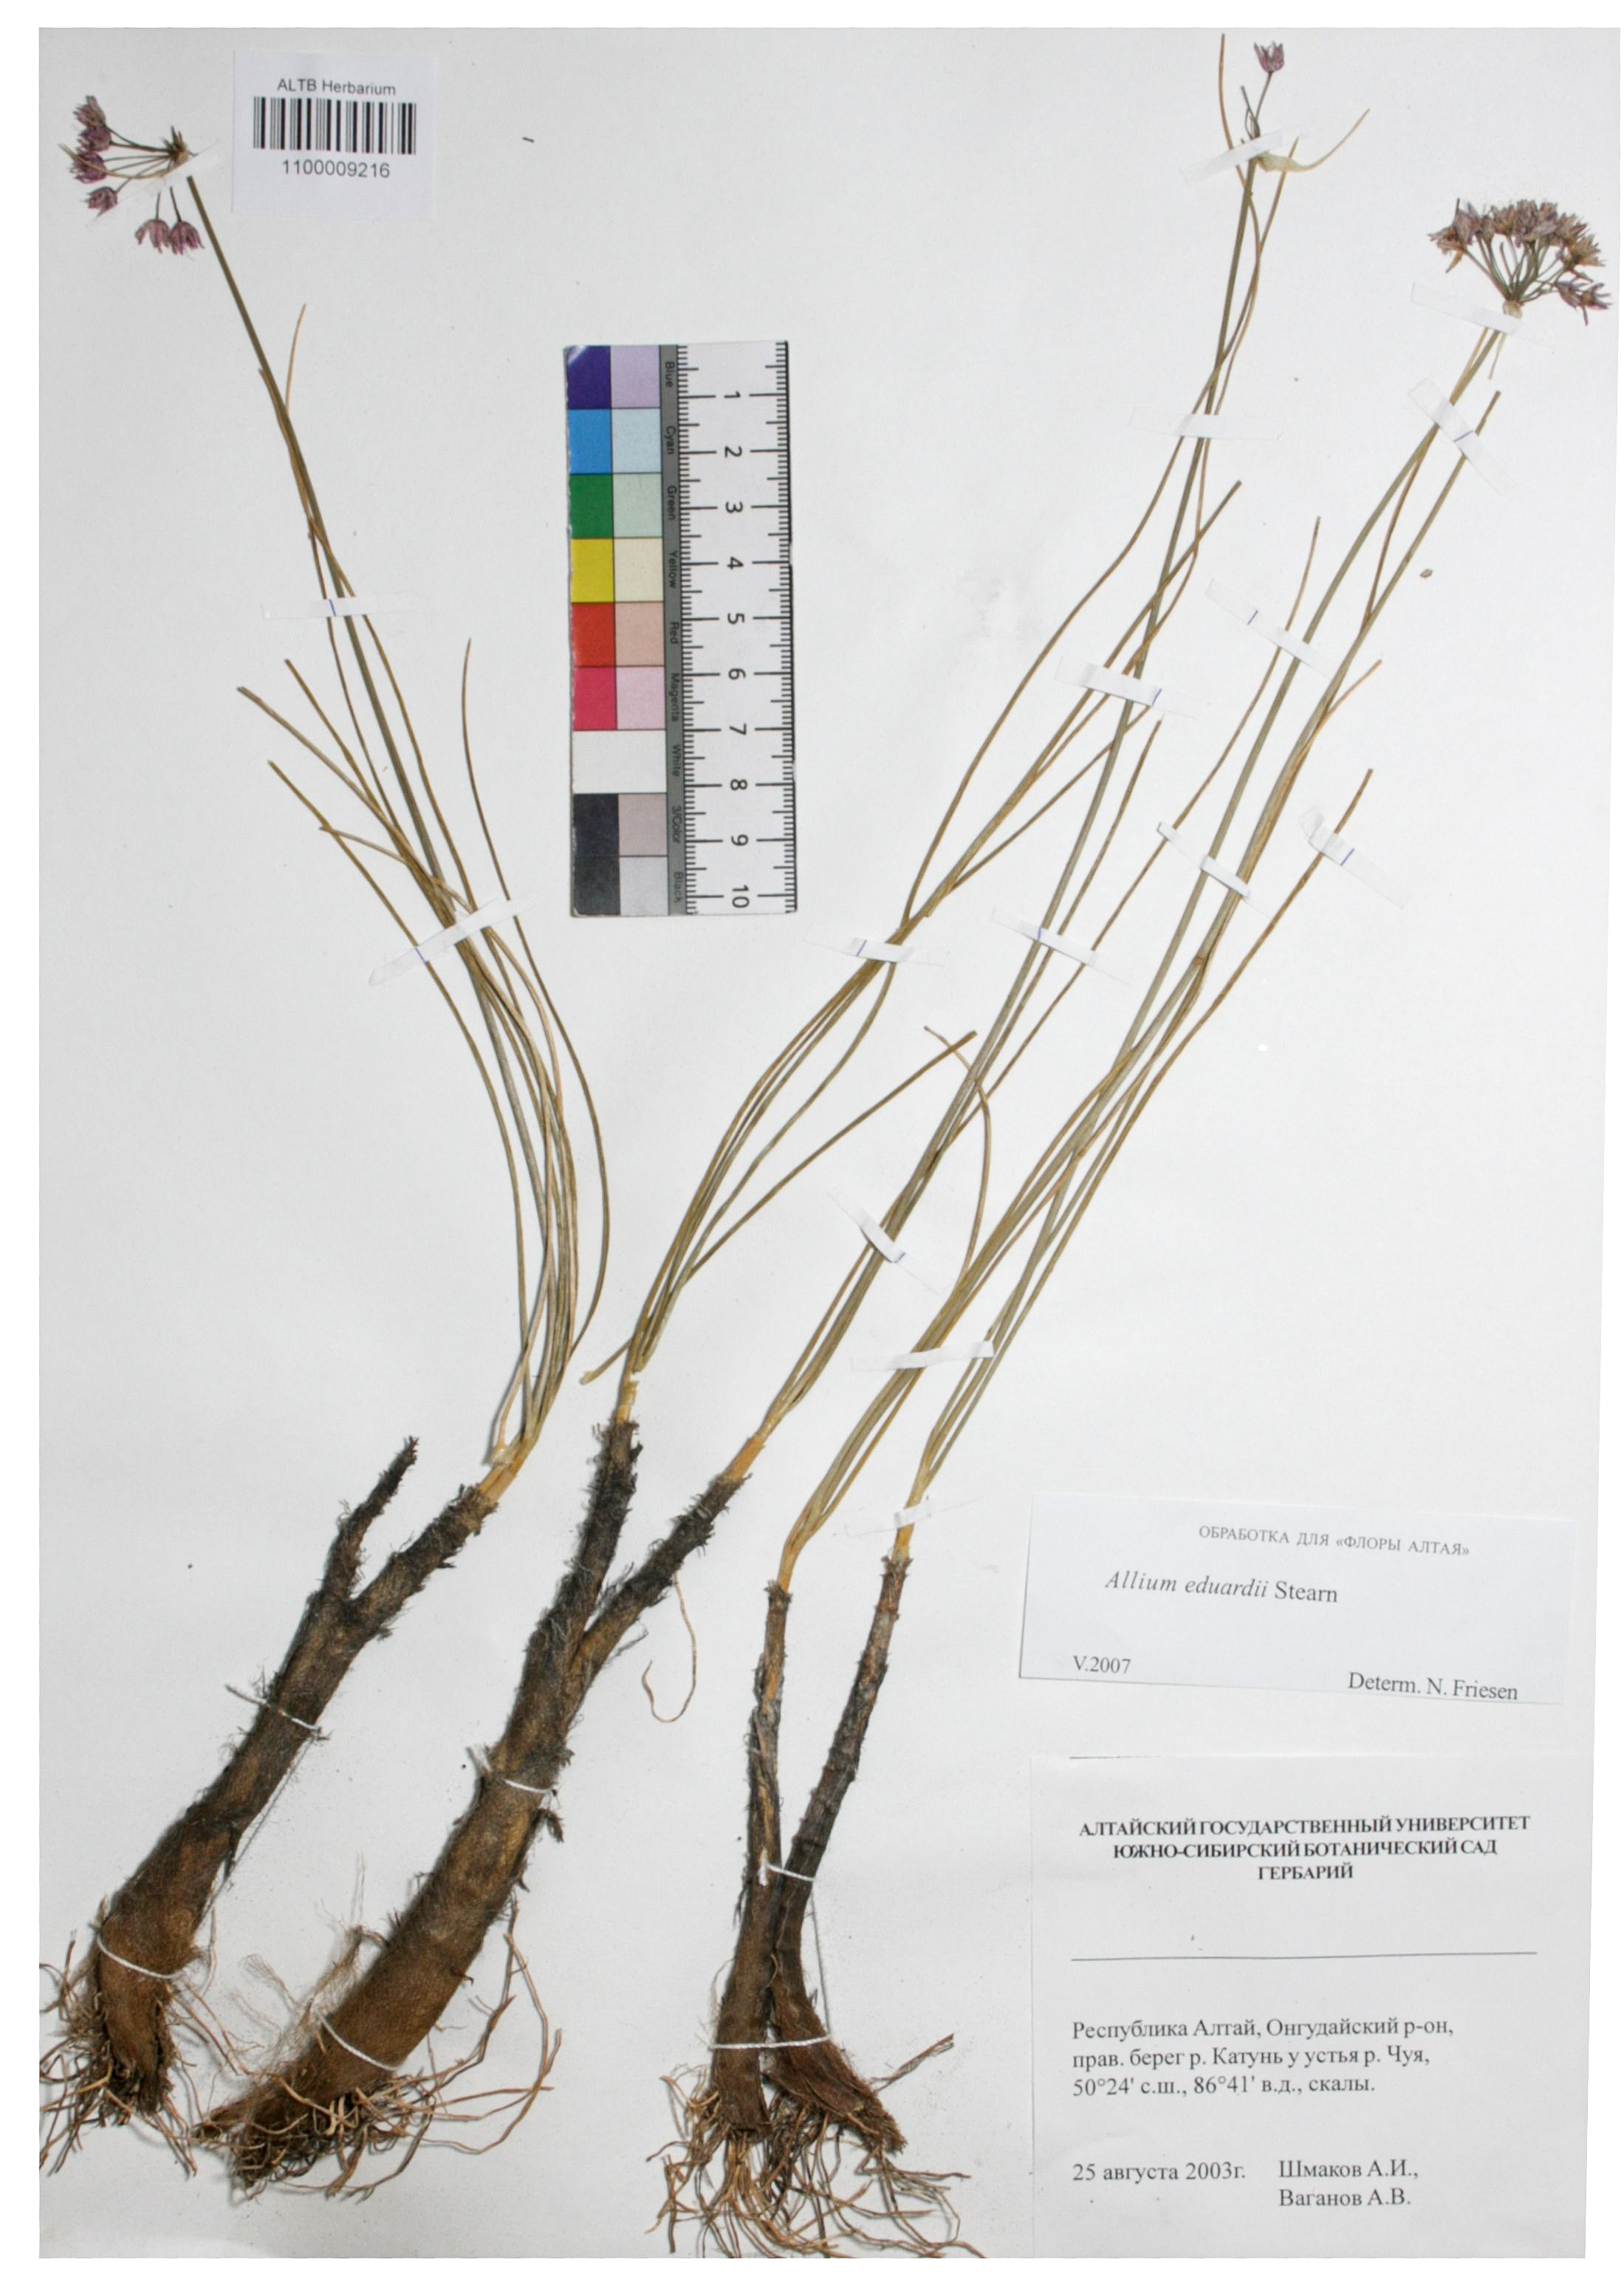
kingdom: Plantae
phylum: Tracheophyta
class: Liliopsida
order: Asparagales
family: Amaryllidaceae
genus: Allium
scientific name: Allium eduardi
